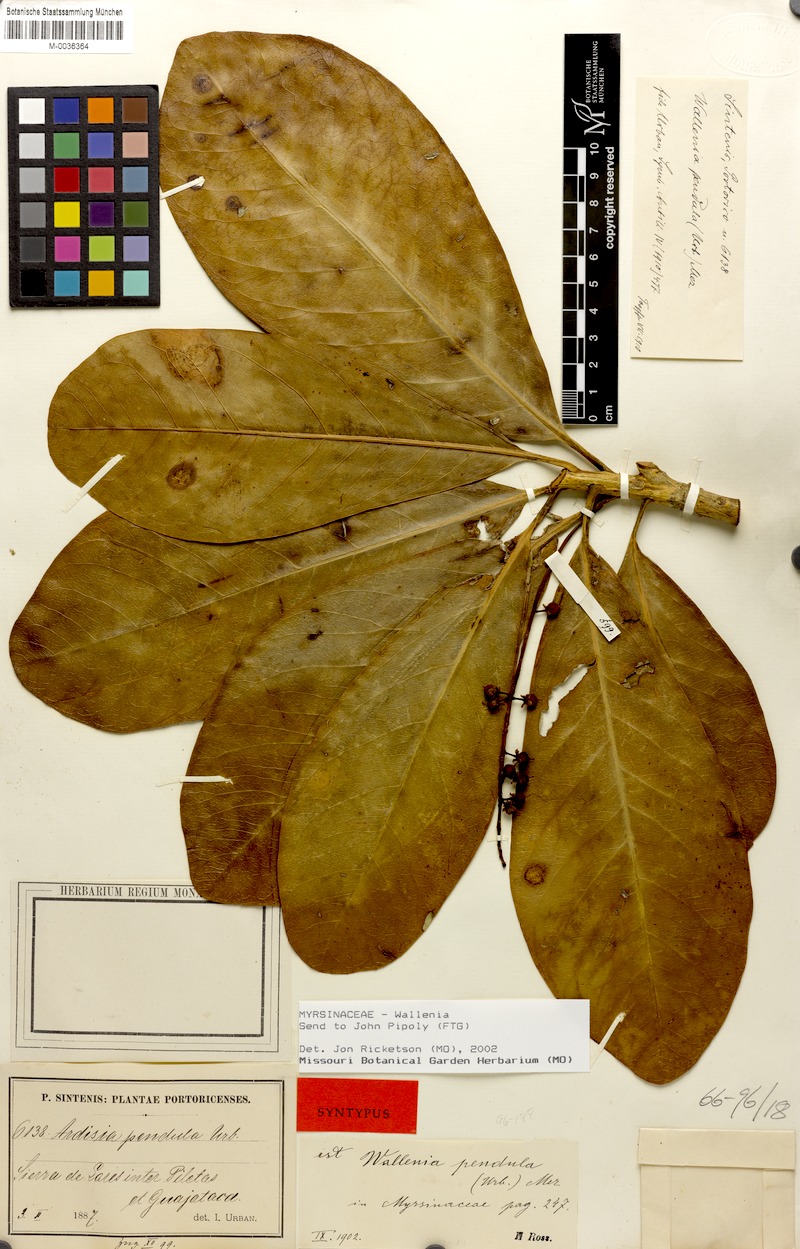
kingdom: Plantae
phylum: Tracheophyta
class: Magnoliopsida
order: Ericales
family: Primulaceae
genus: Wallenia
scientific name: Wallenia lamarckiana
